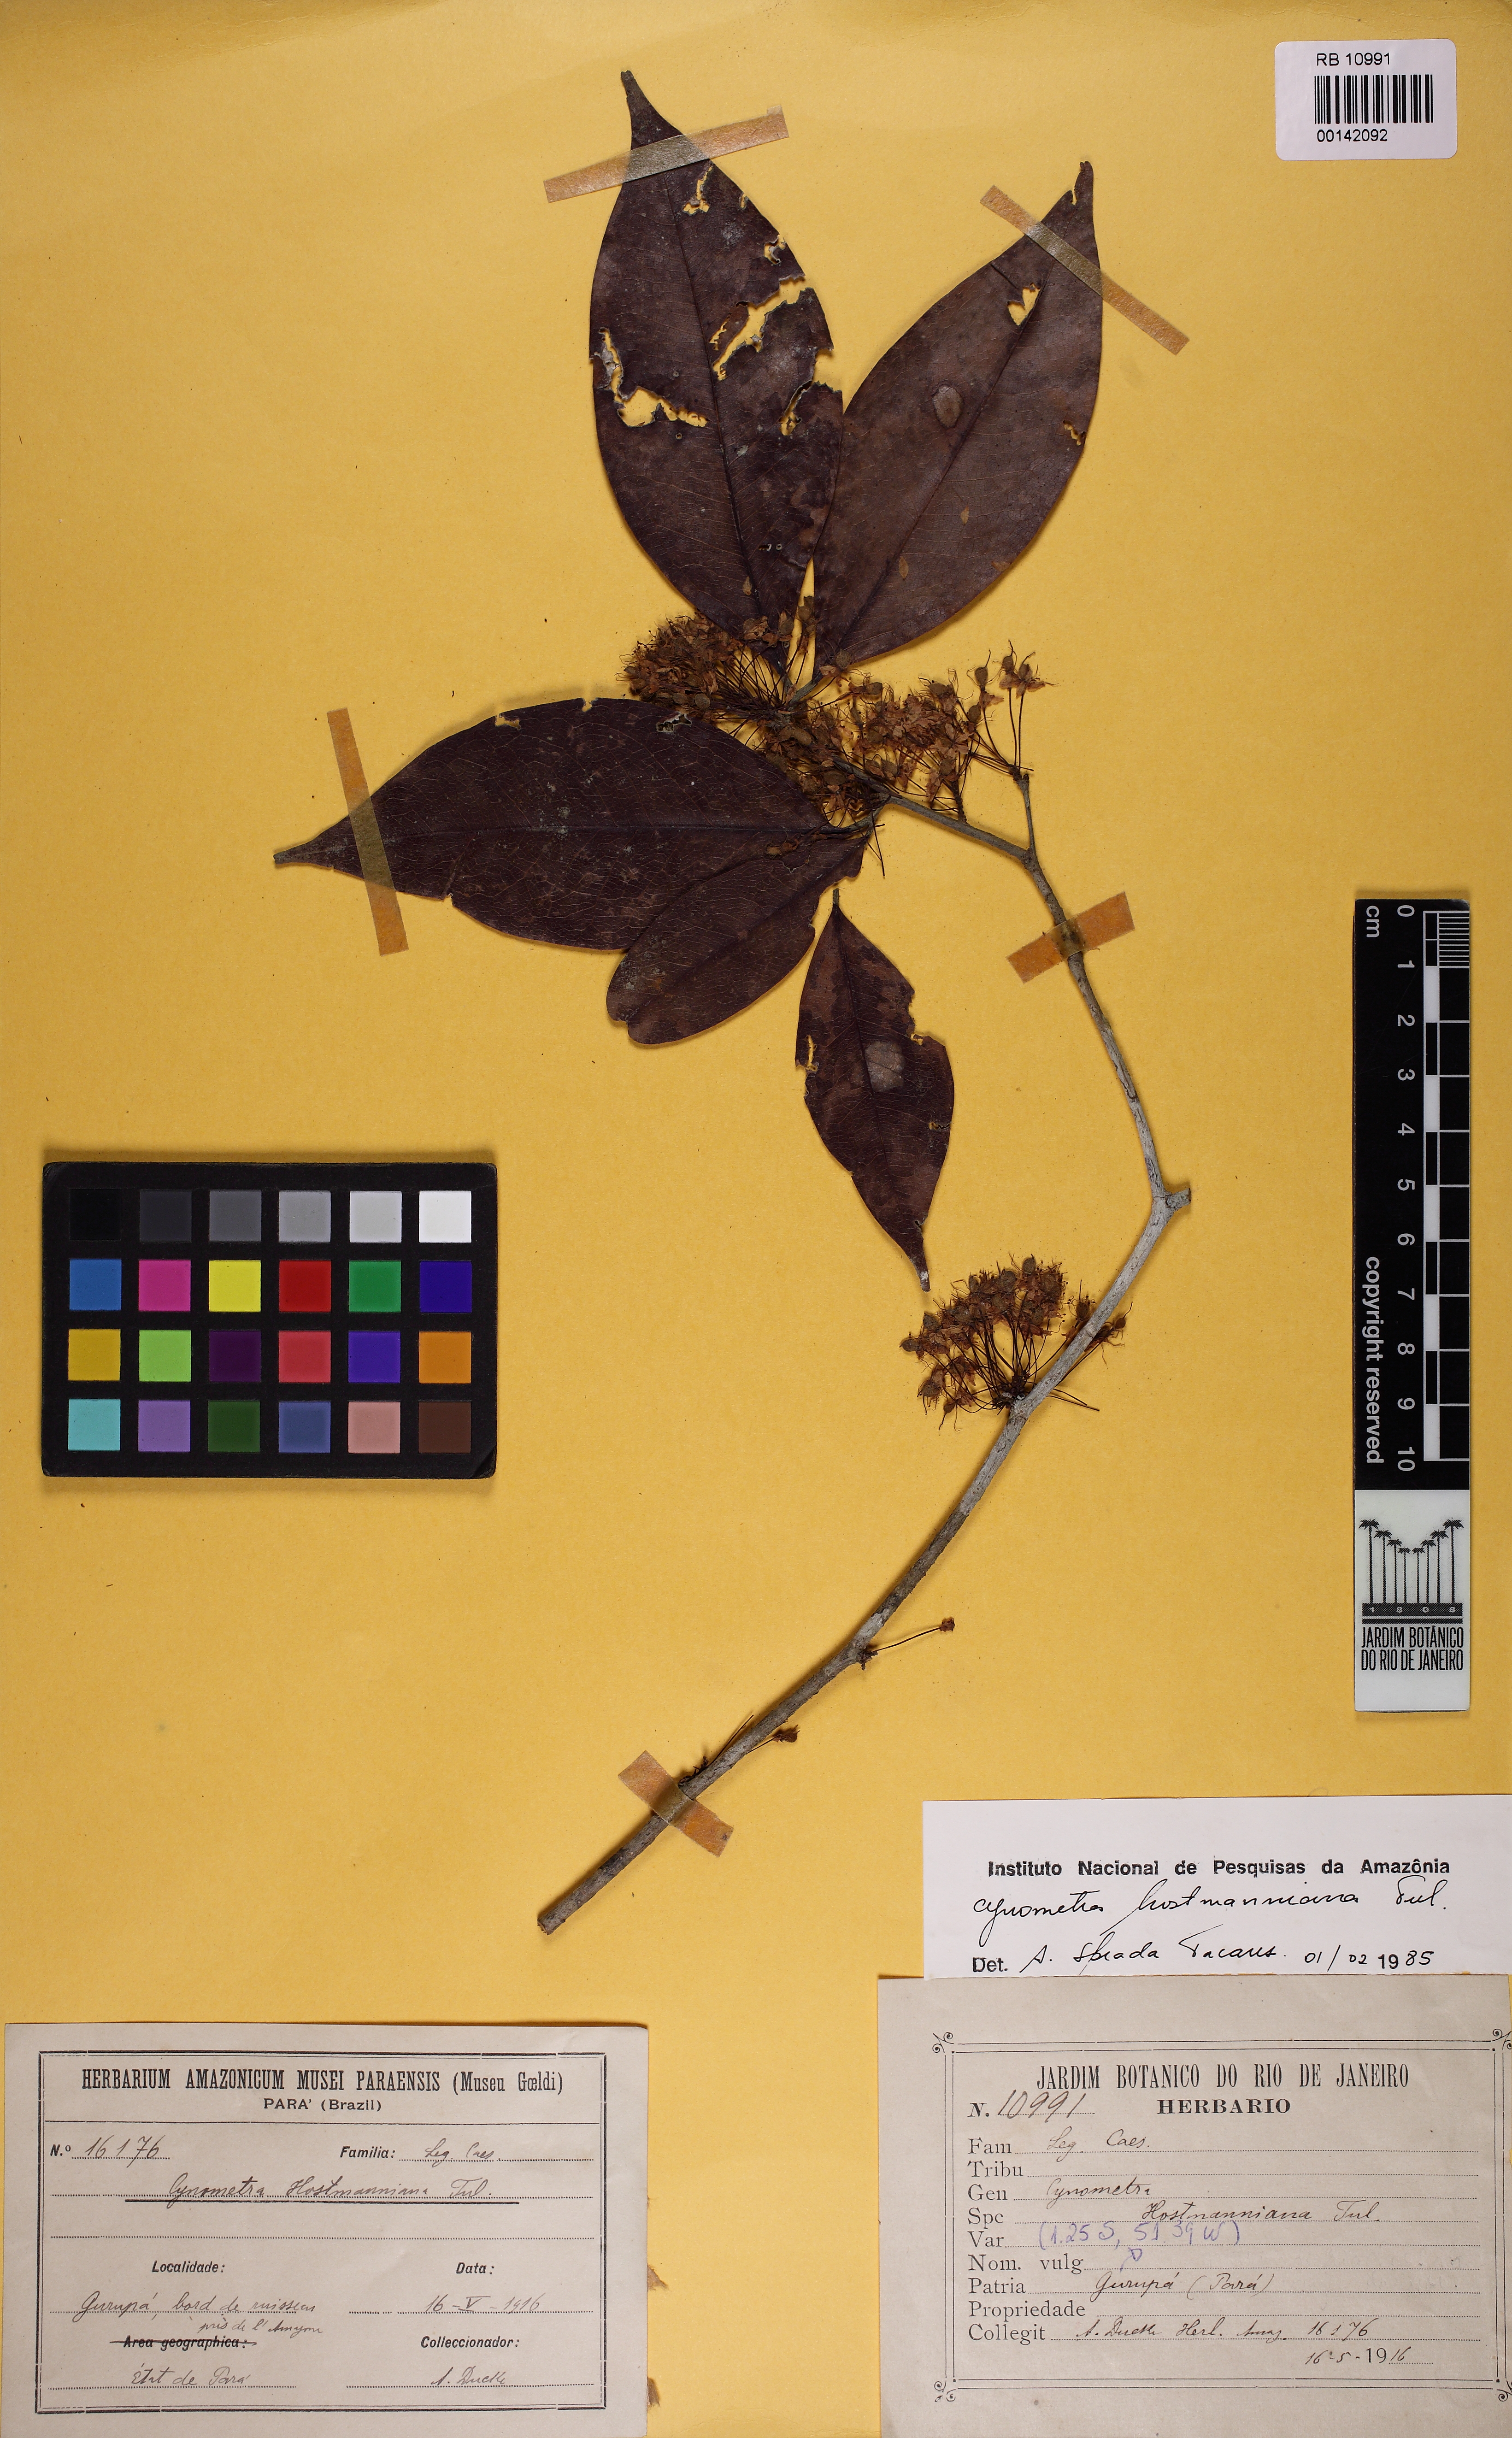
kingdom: Plantae
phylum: Tracheophyta
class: Magnoliopsida
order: Fabales
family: Fabaceae
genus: Cynometra
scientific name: Cynometra hostmanniana
